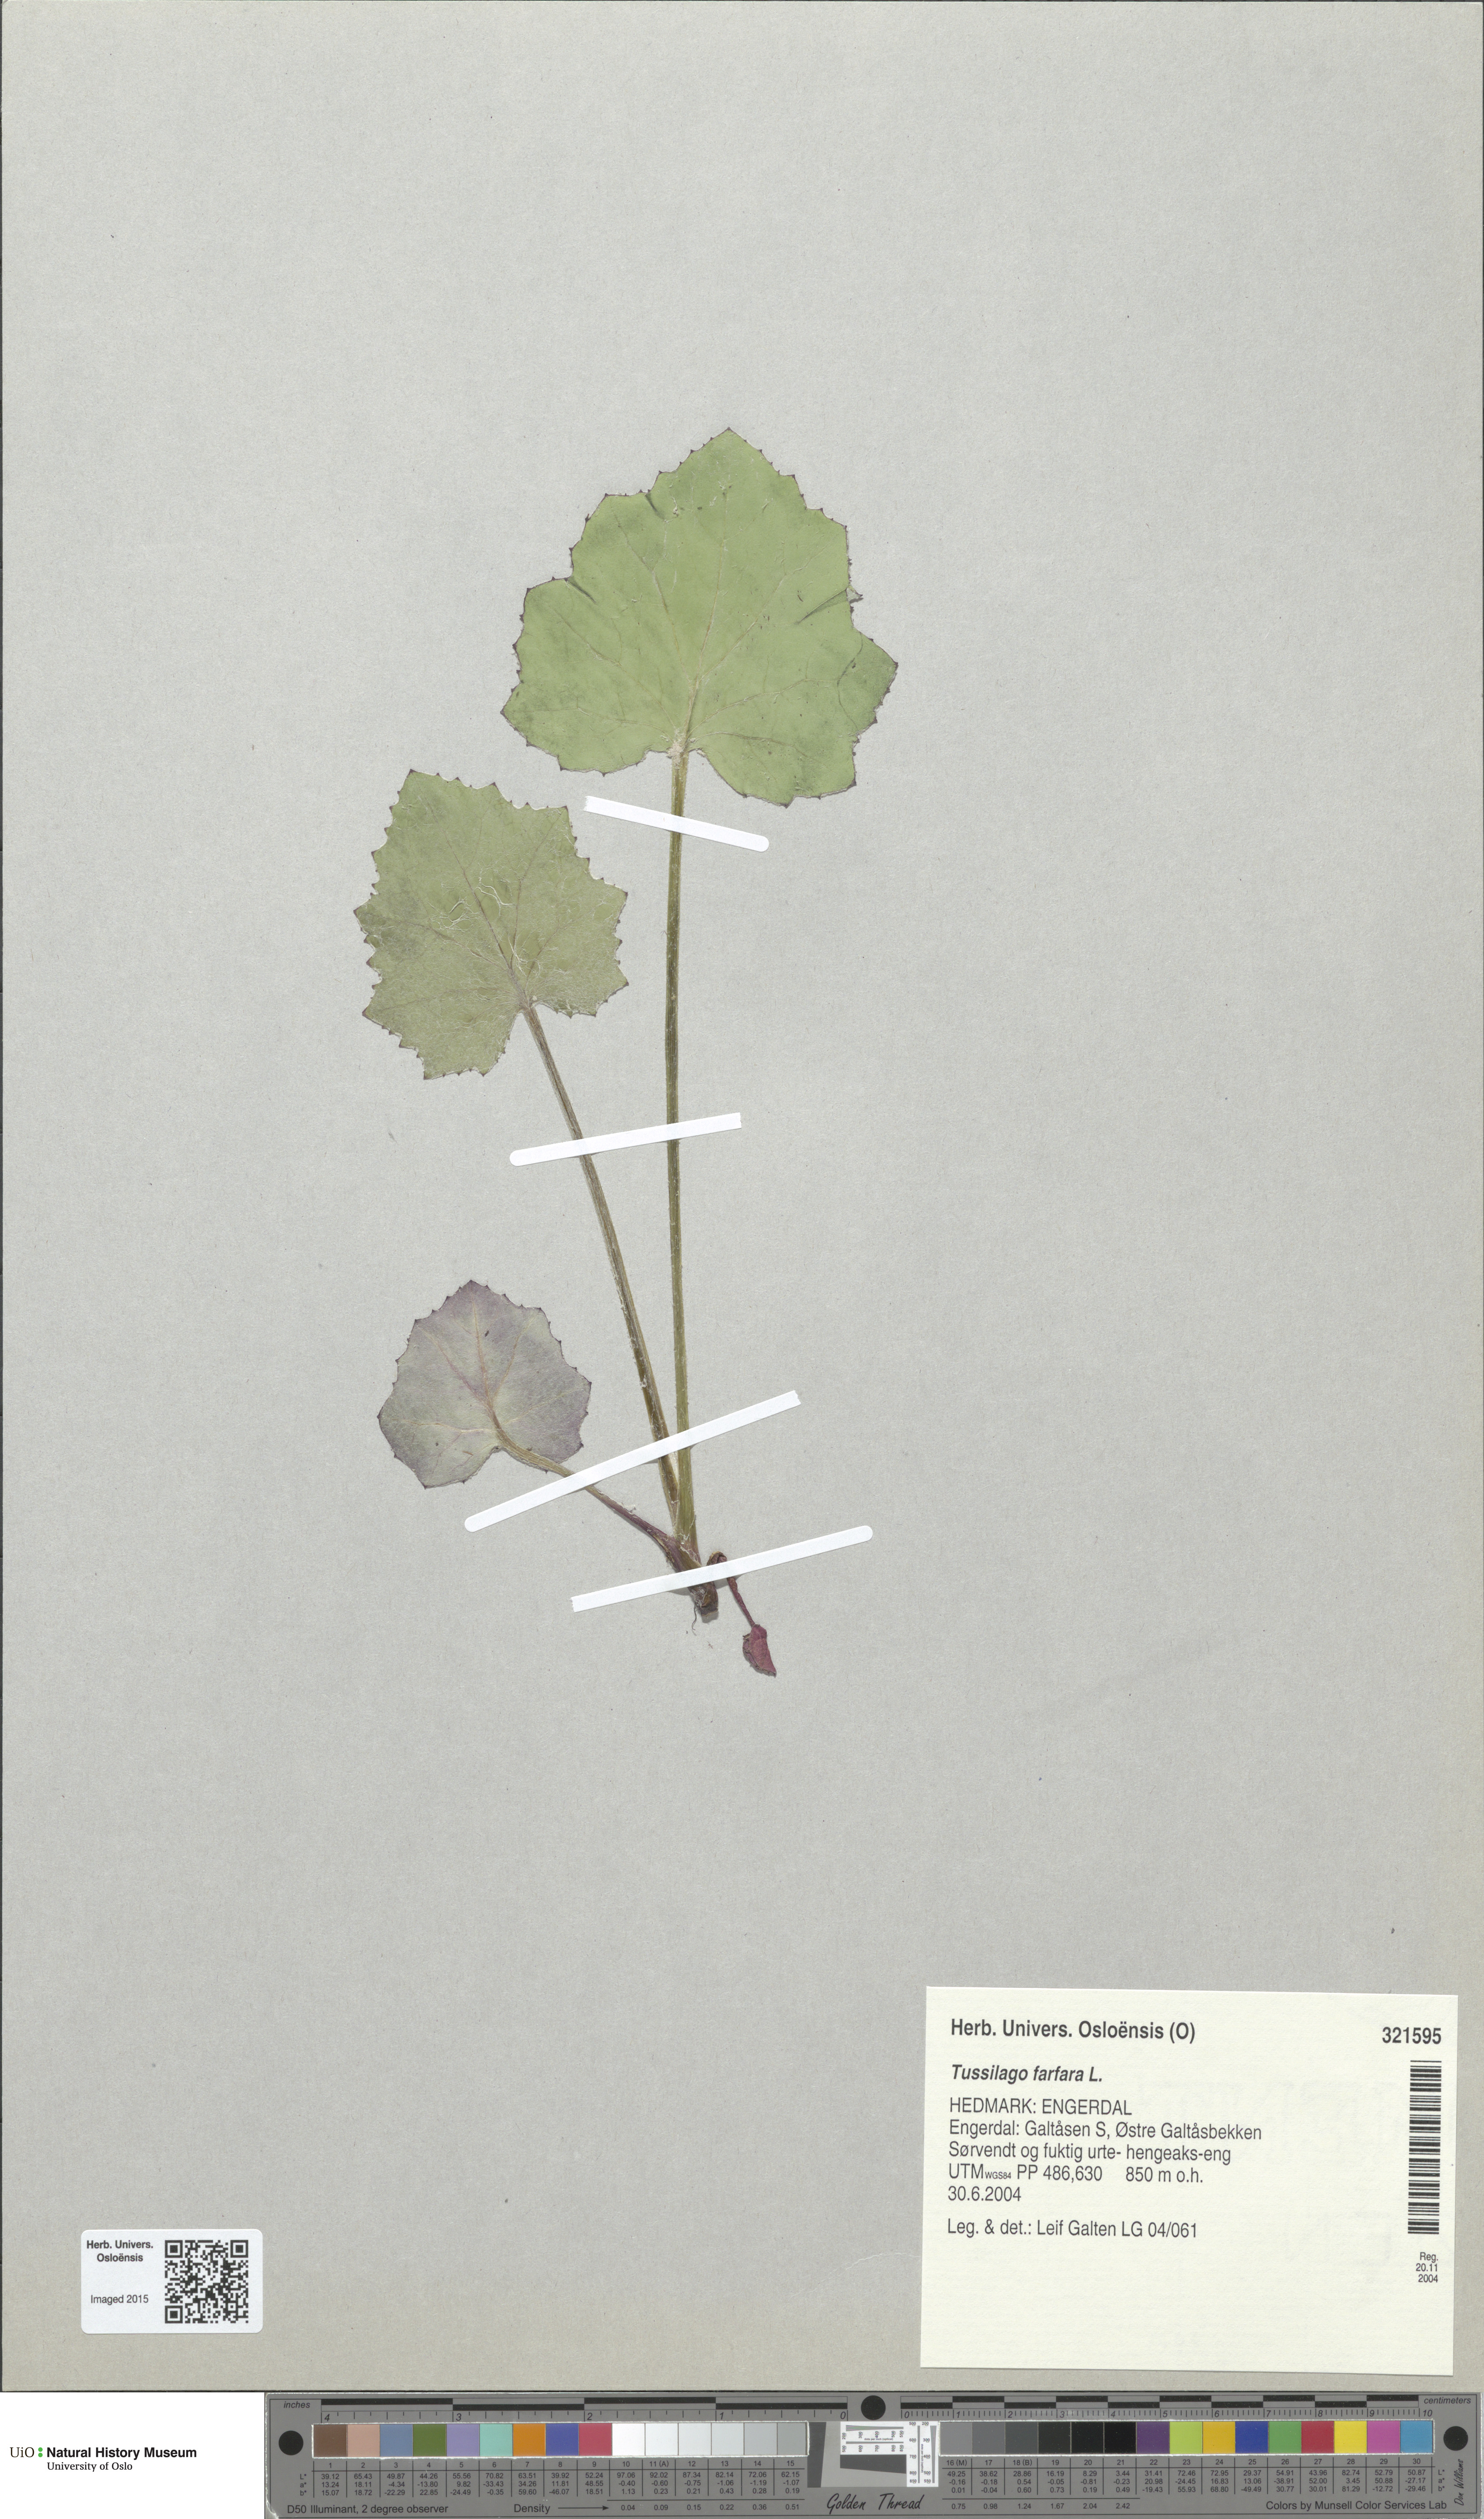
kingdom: Plantae
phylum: Tracheophyta
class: Magnoliopsida
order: Asterales
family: Asteraceae
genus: Tussilago
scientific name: Tussilago farfara
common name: Coltsfoot
